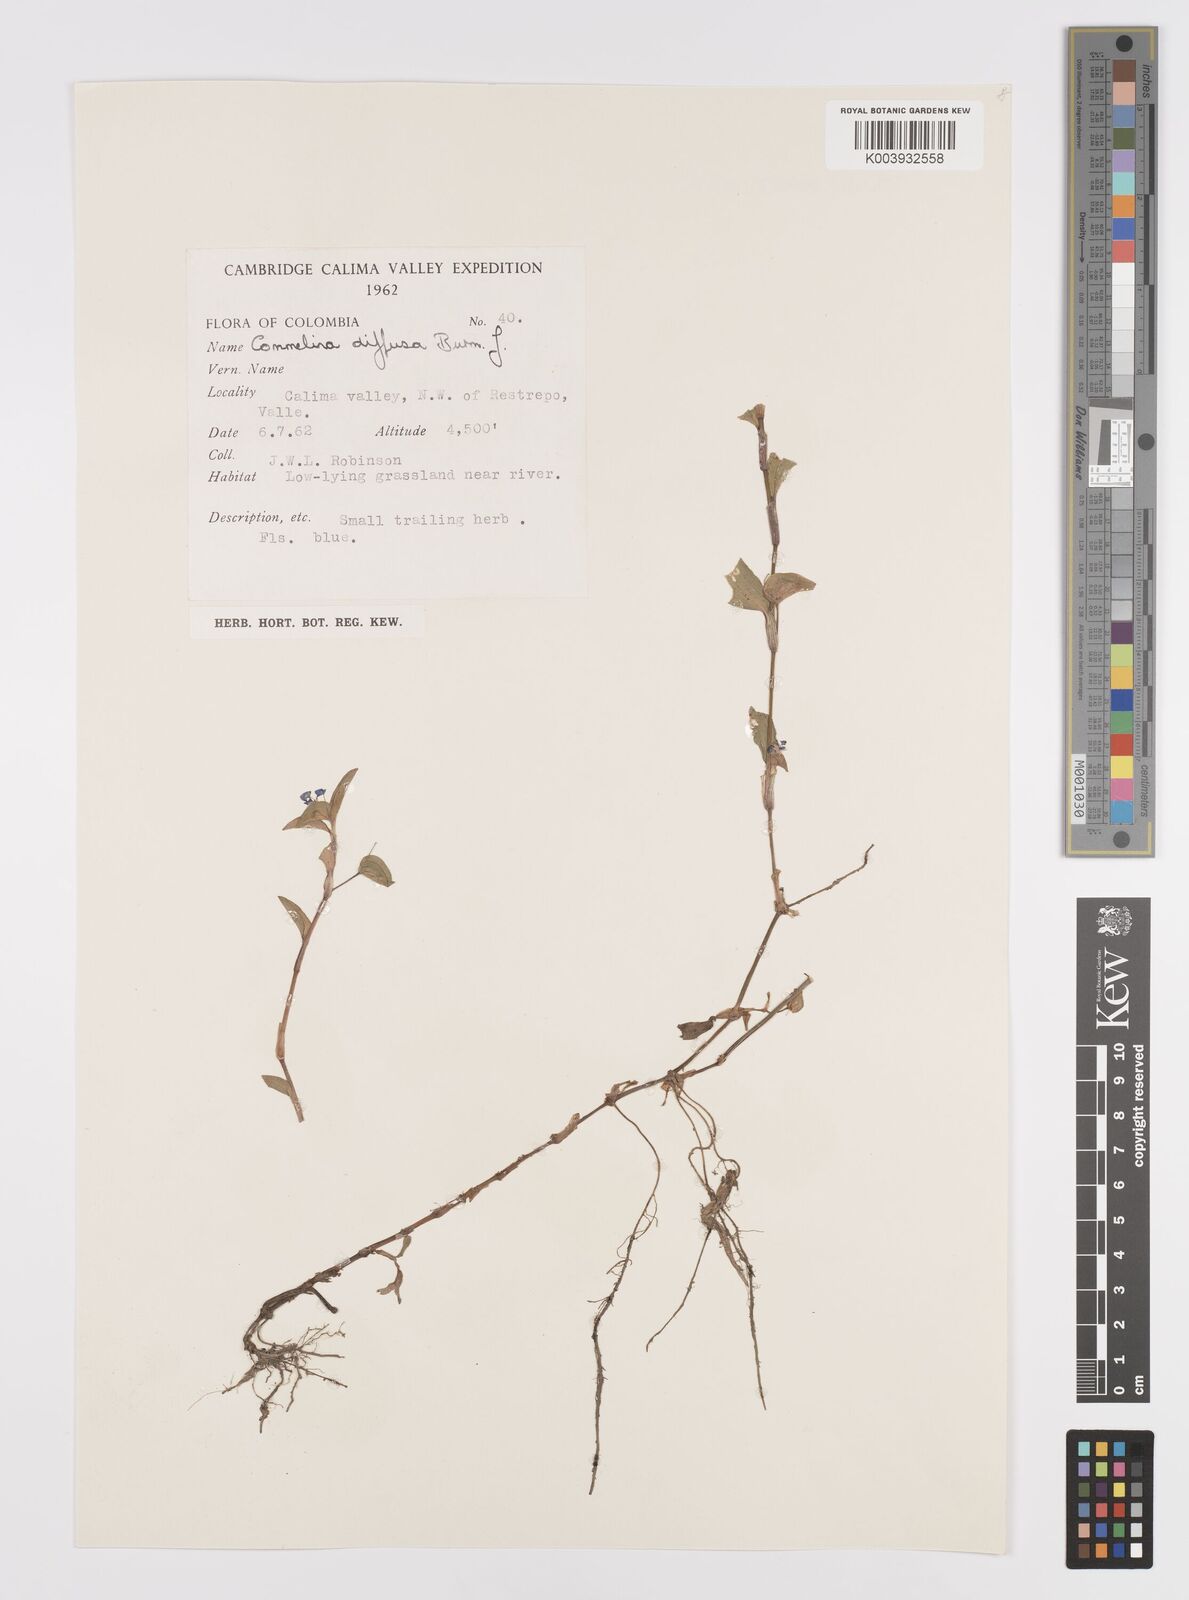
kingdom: Plantae
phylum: Tracheophyta
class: Liliopsida
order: Commelinales
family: Commelinaceae
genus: Commelina
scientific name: Commelina diffusa
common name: Climbing dayflower
